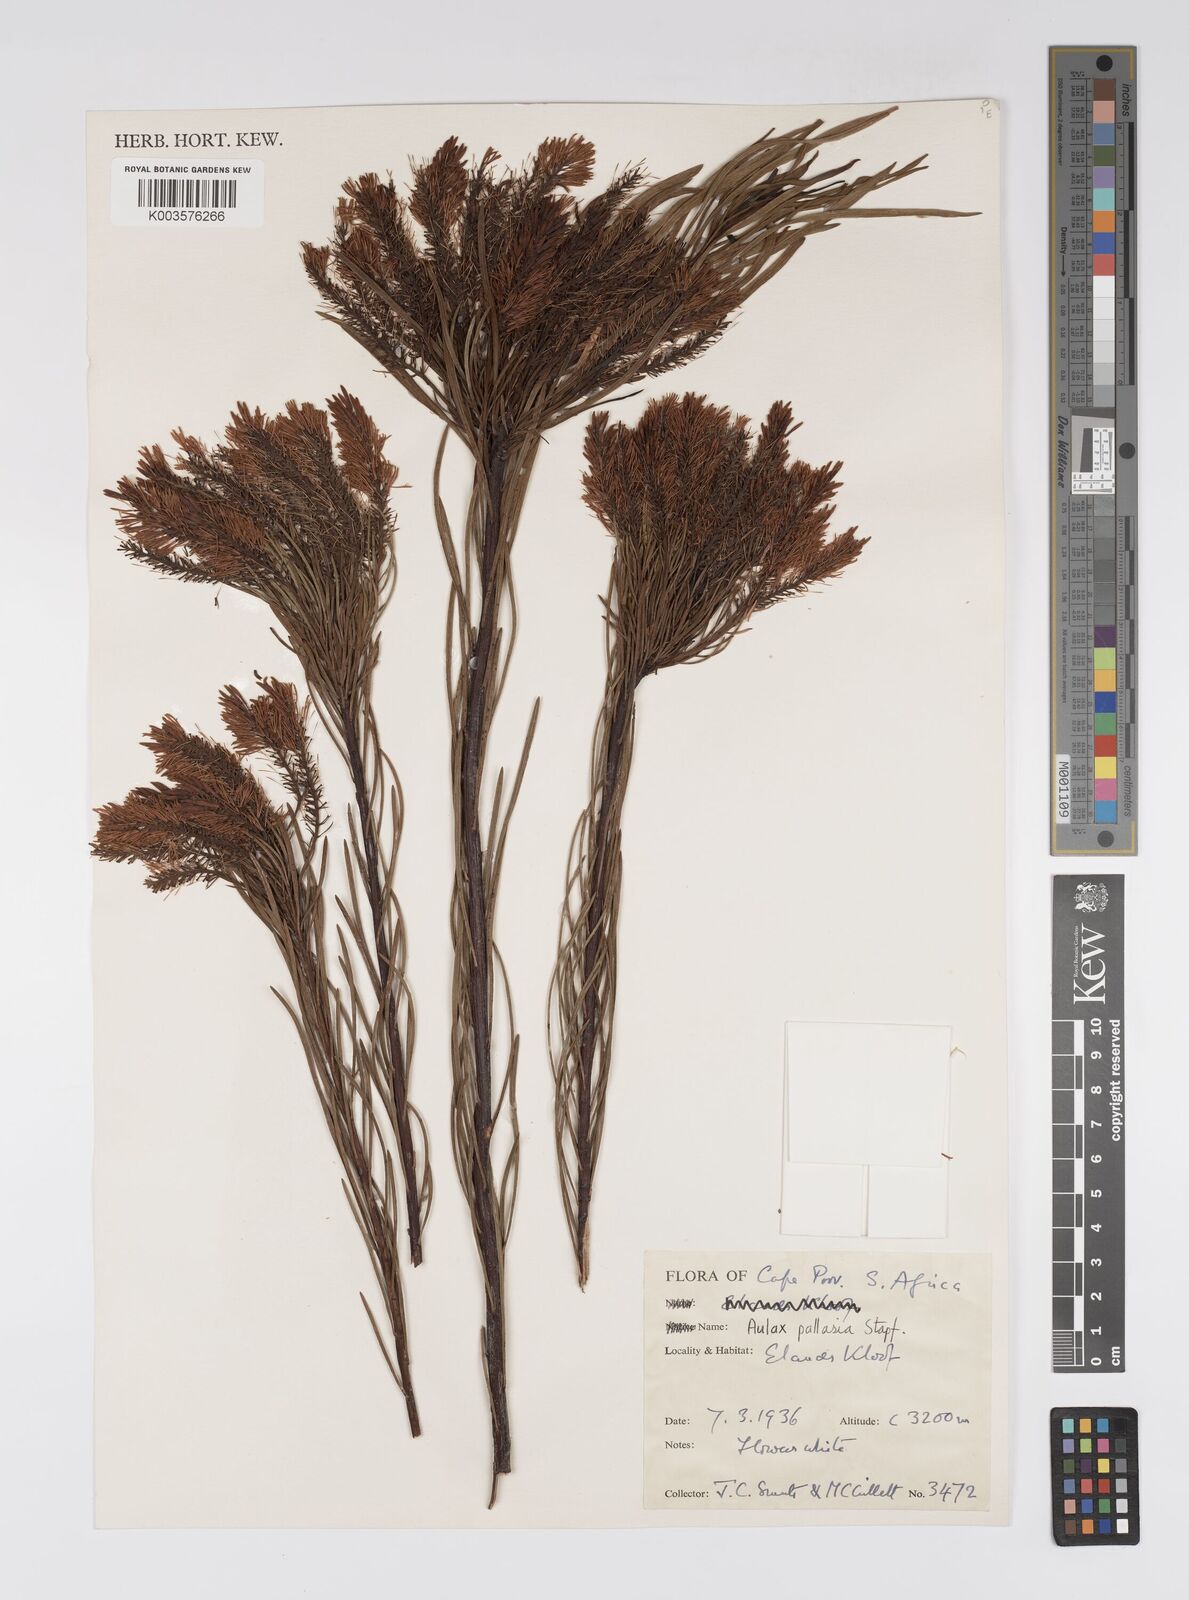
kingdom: Plantae
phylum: Tracheophyta
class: Magnoliopsida
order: Proteales
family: Proteaceae
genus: Aulax
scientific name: Aulax pallasia
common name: Needle-leaf featherbush
